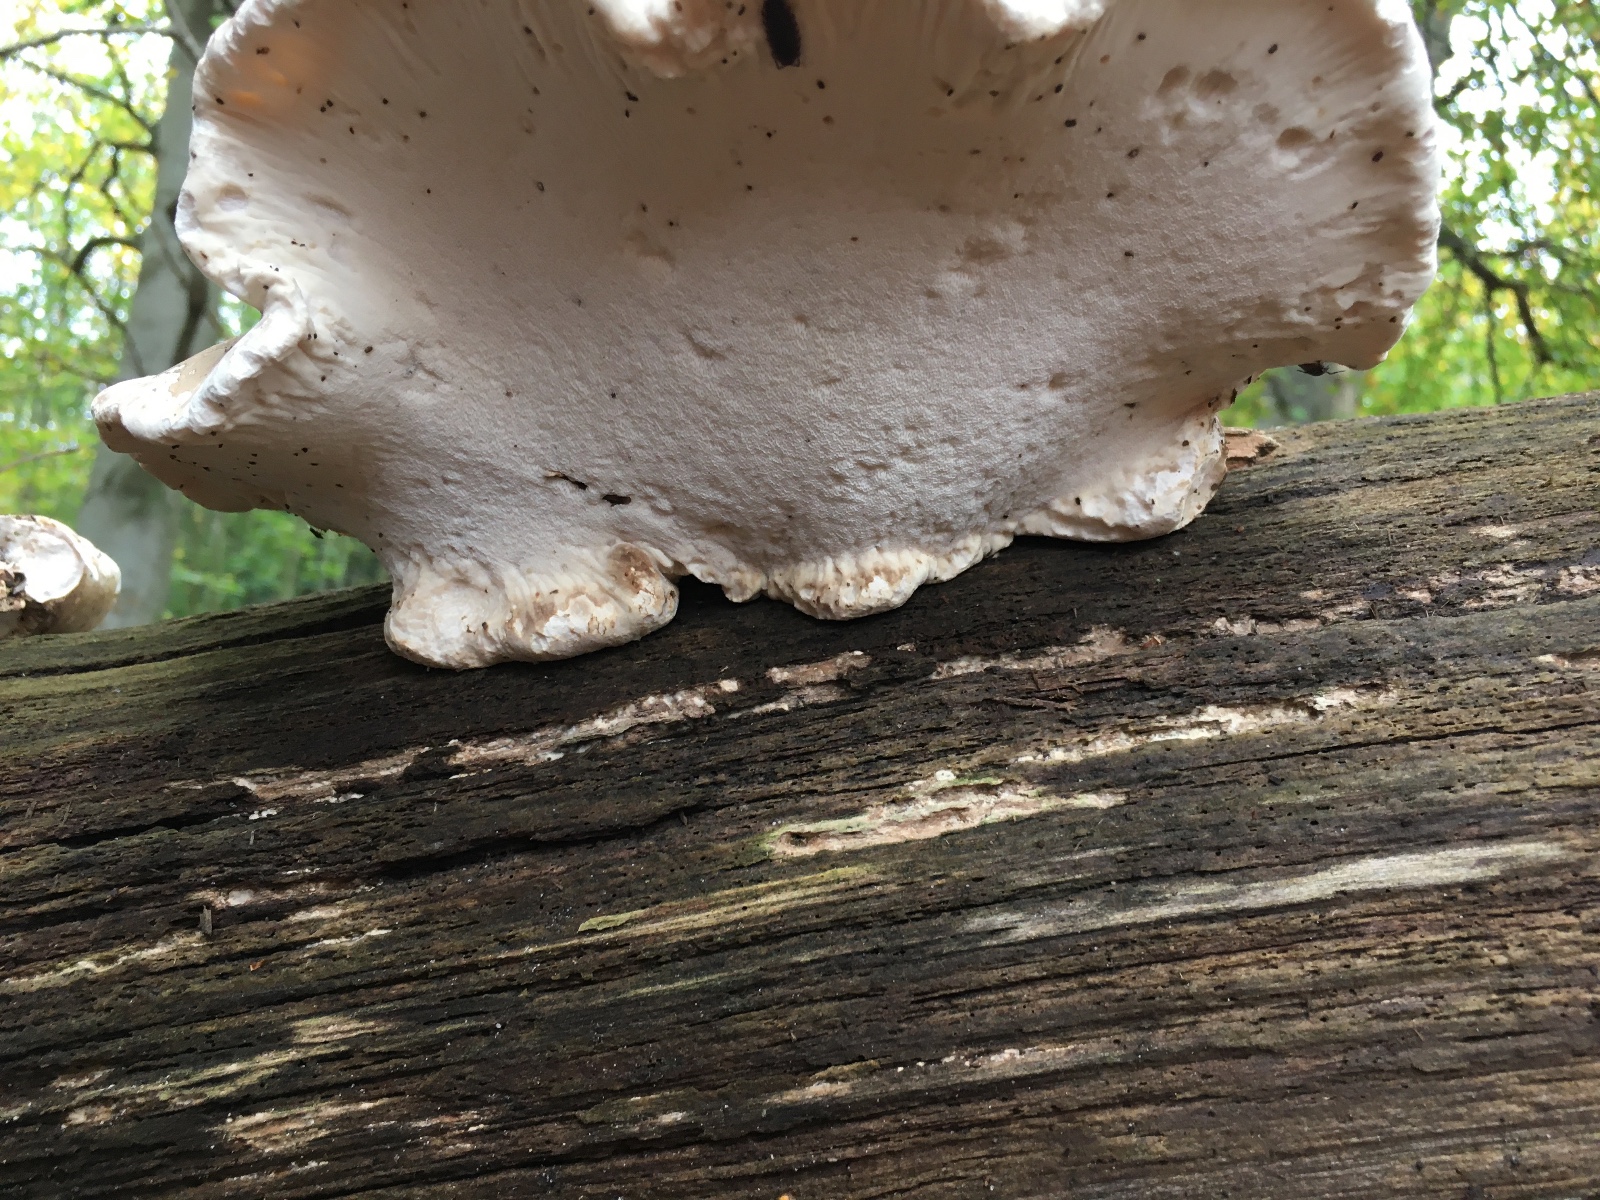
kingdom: Fungi
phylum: Basidiomycota
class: Agaricomycetes
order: Polyporales
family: Fomitopsidaceae
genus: Fomitopsis
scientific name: Fomitopsis betulina
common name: birkeporesvamp
